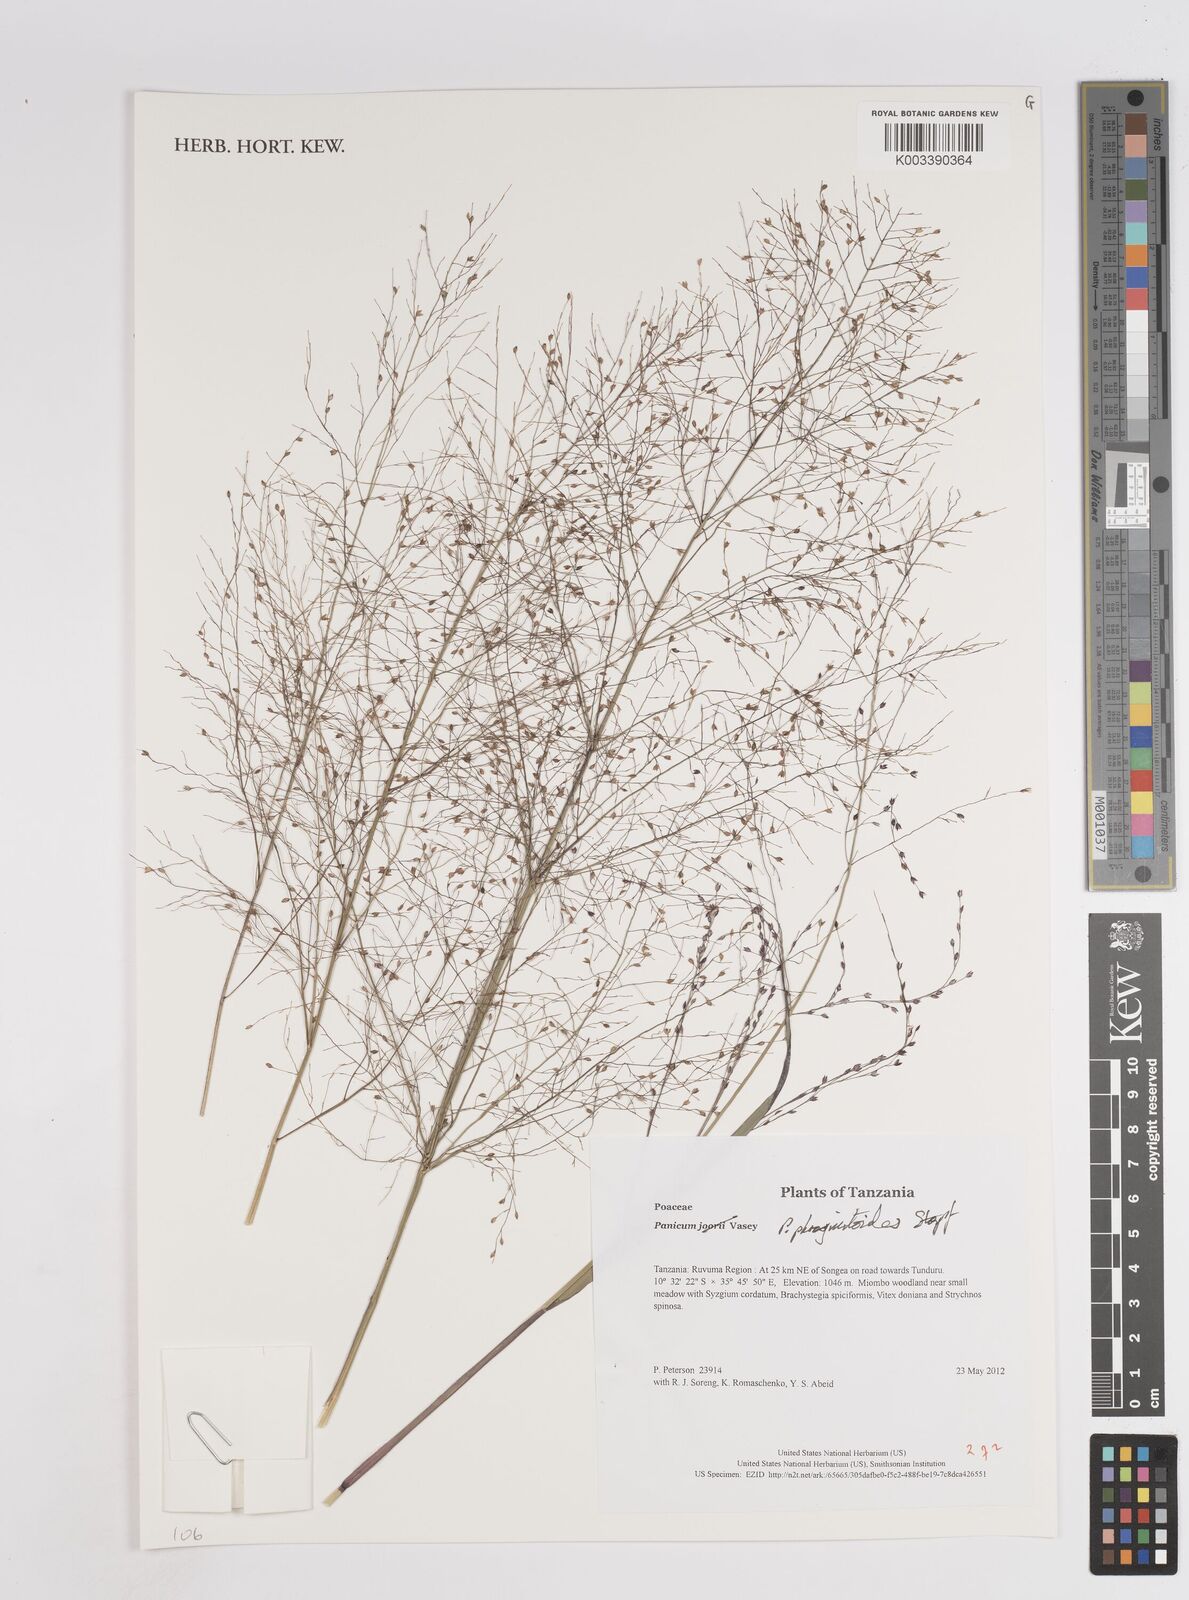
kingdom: Plantae
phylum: Tracheophyta
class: Liliopsida
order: Poales
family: Poaceae
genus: Panicum
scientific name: Panicum phragmitoides
